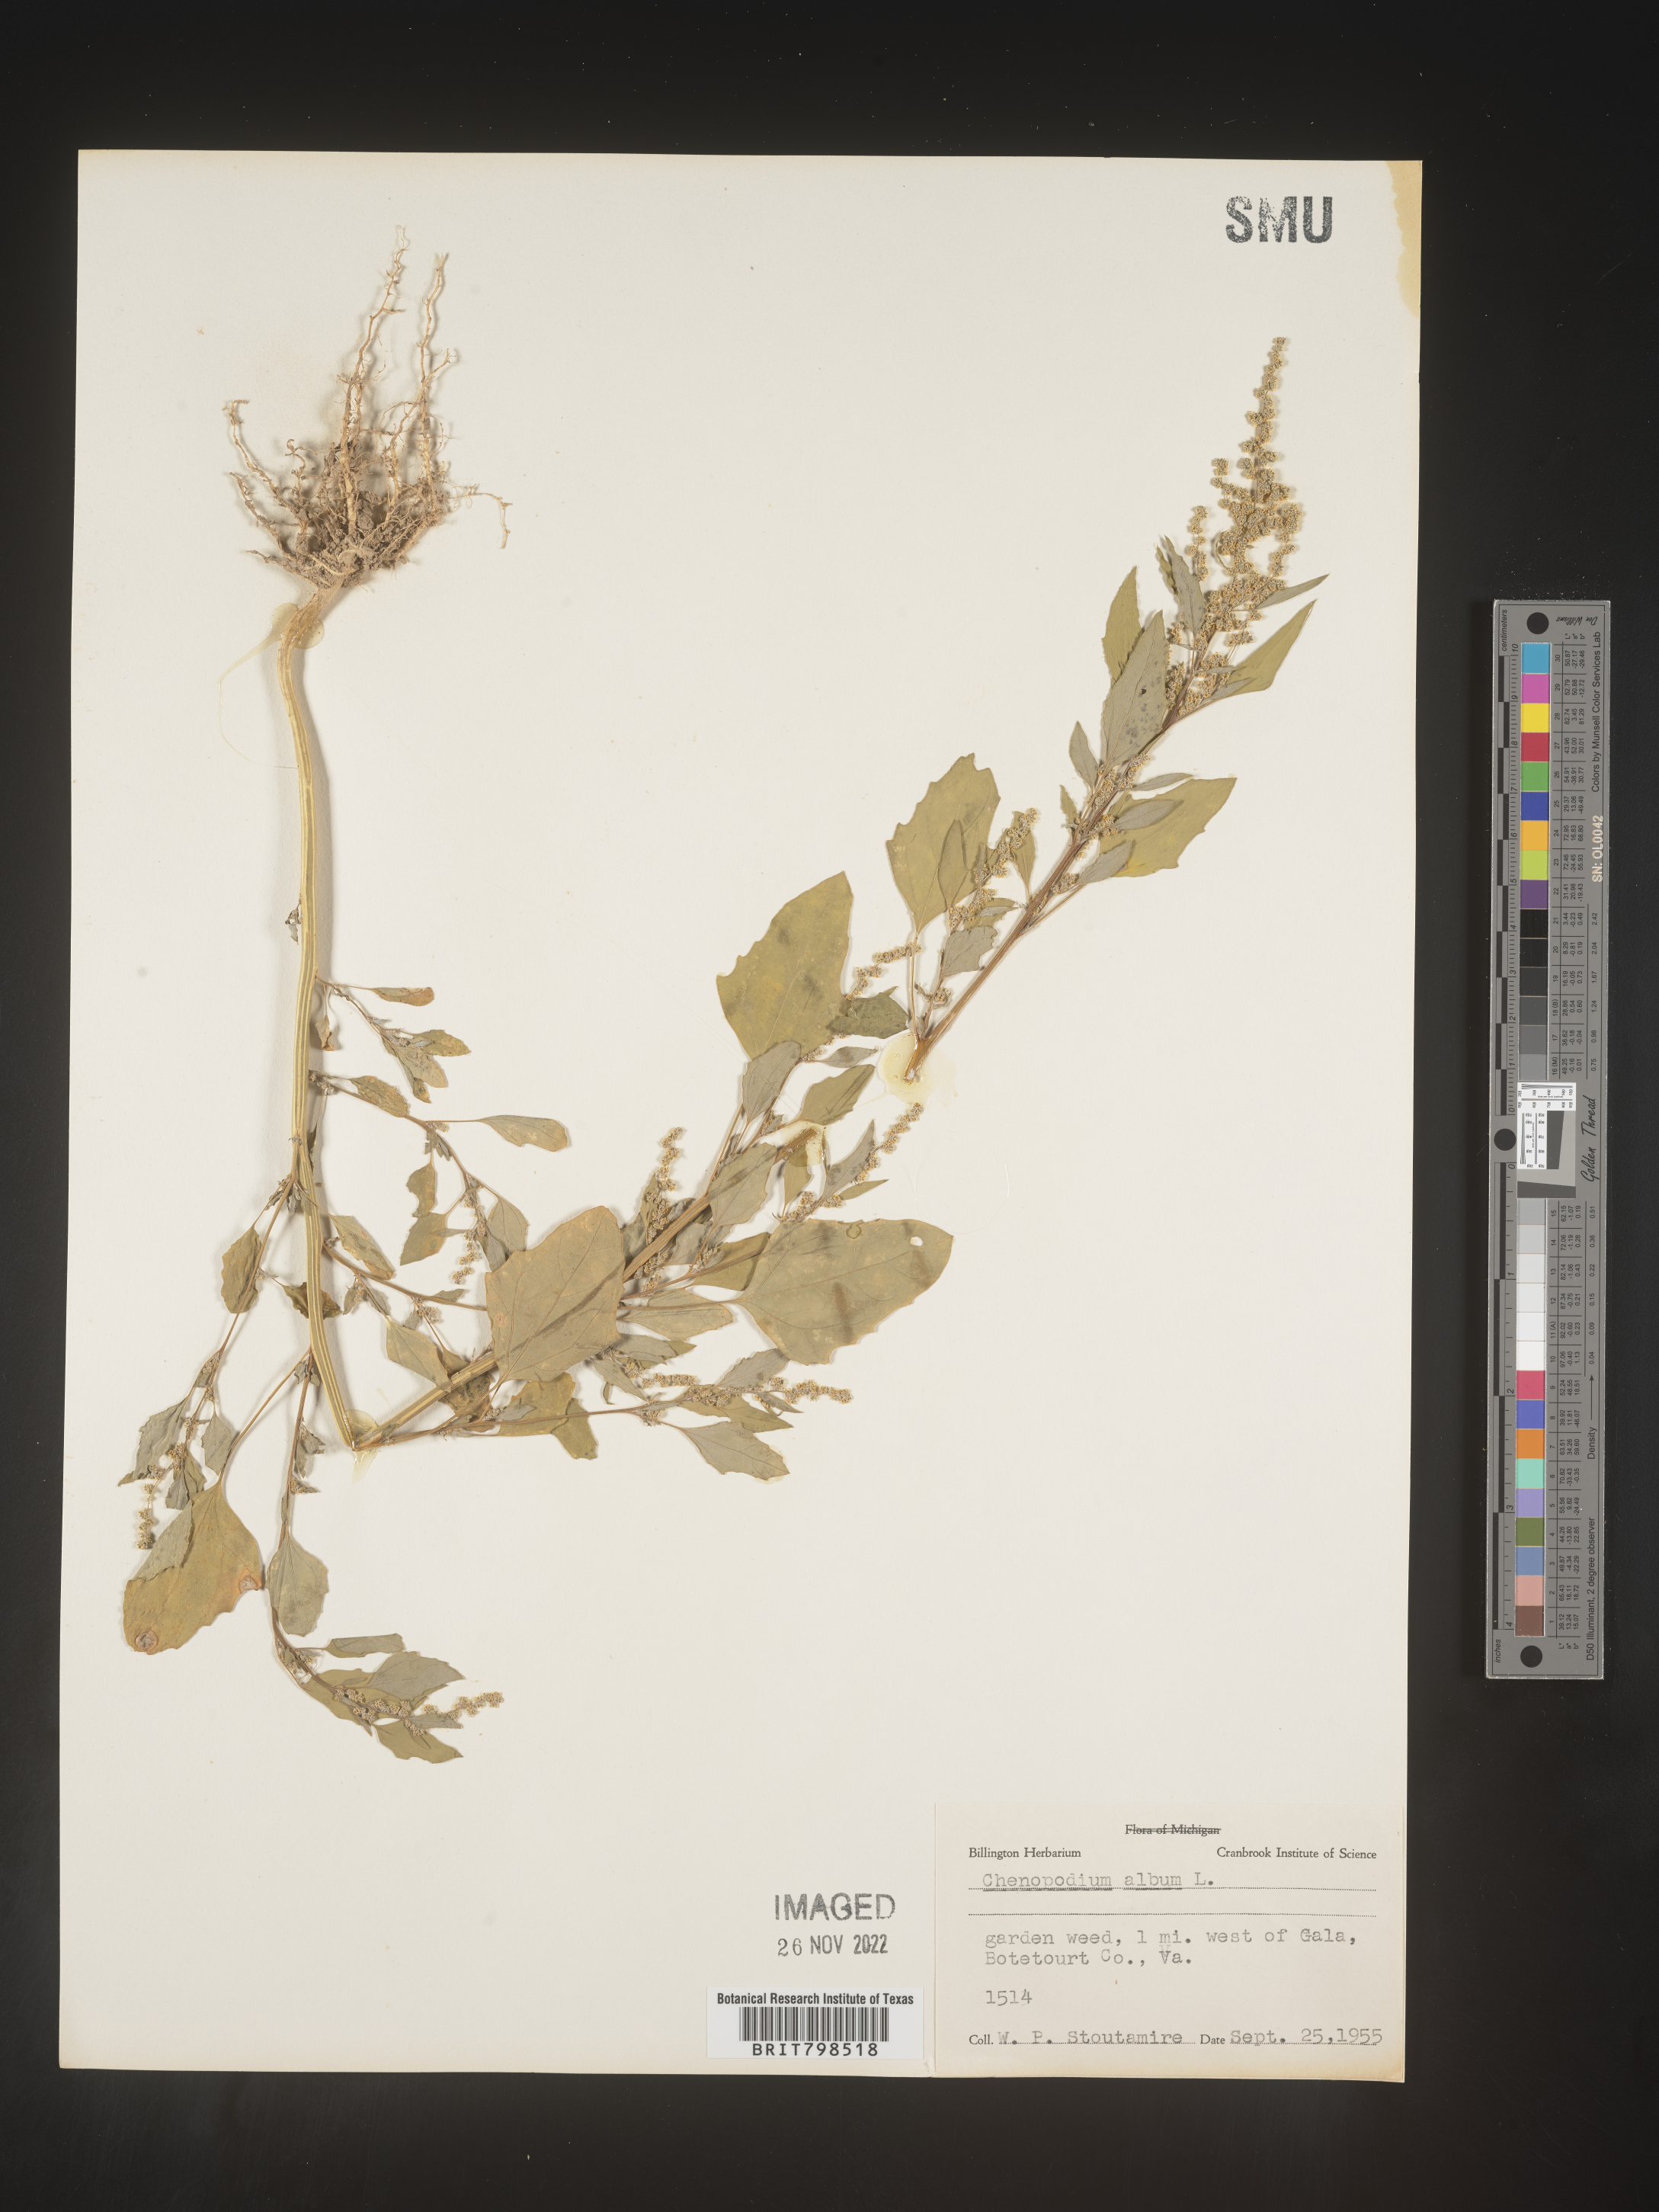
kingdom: Plantae
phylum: Tracheophyta
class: Magnoliopsida
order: Caryophyllales
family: Amaranthaceae
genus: Chenopodium
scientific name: Chenopodium album
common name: Fat-hen
